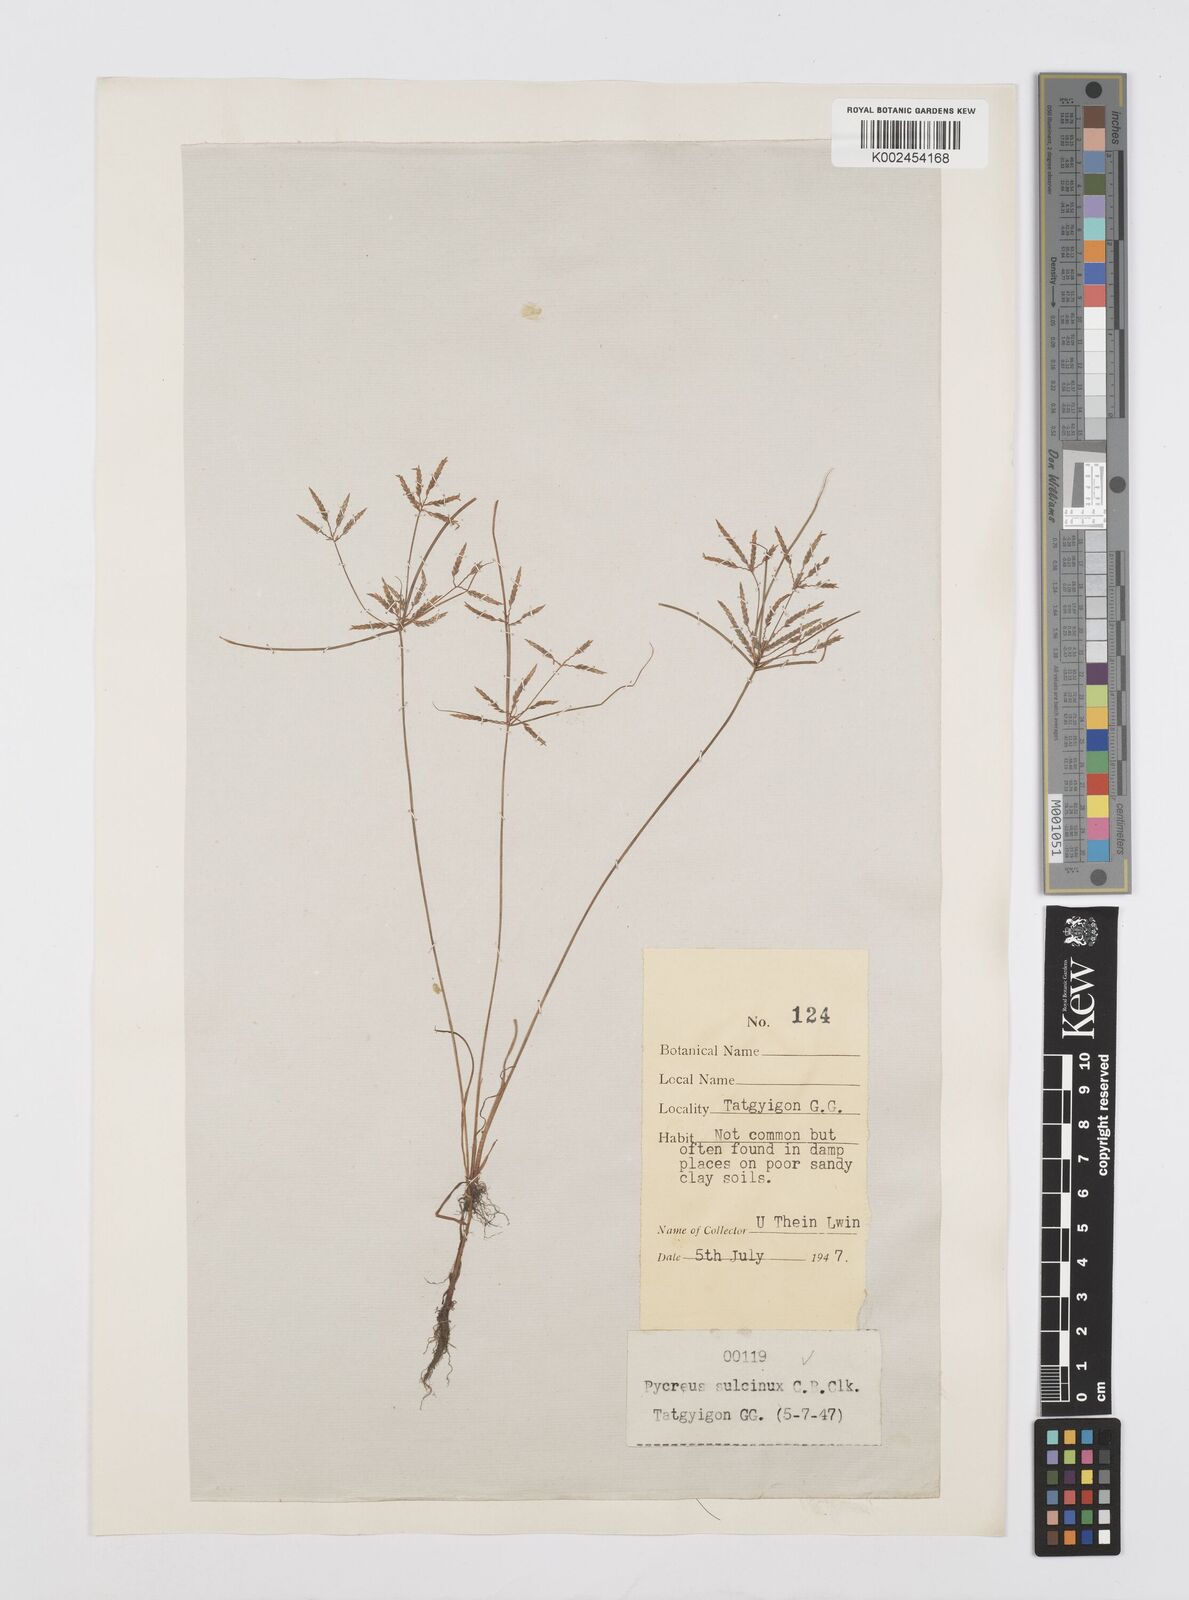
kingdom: Plantae
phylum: Tracheophyta
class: Liliopsida
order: Poales
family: Cyperaceae
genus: Cyperus
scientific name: Cyperus sulcinux
